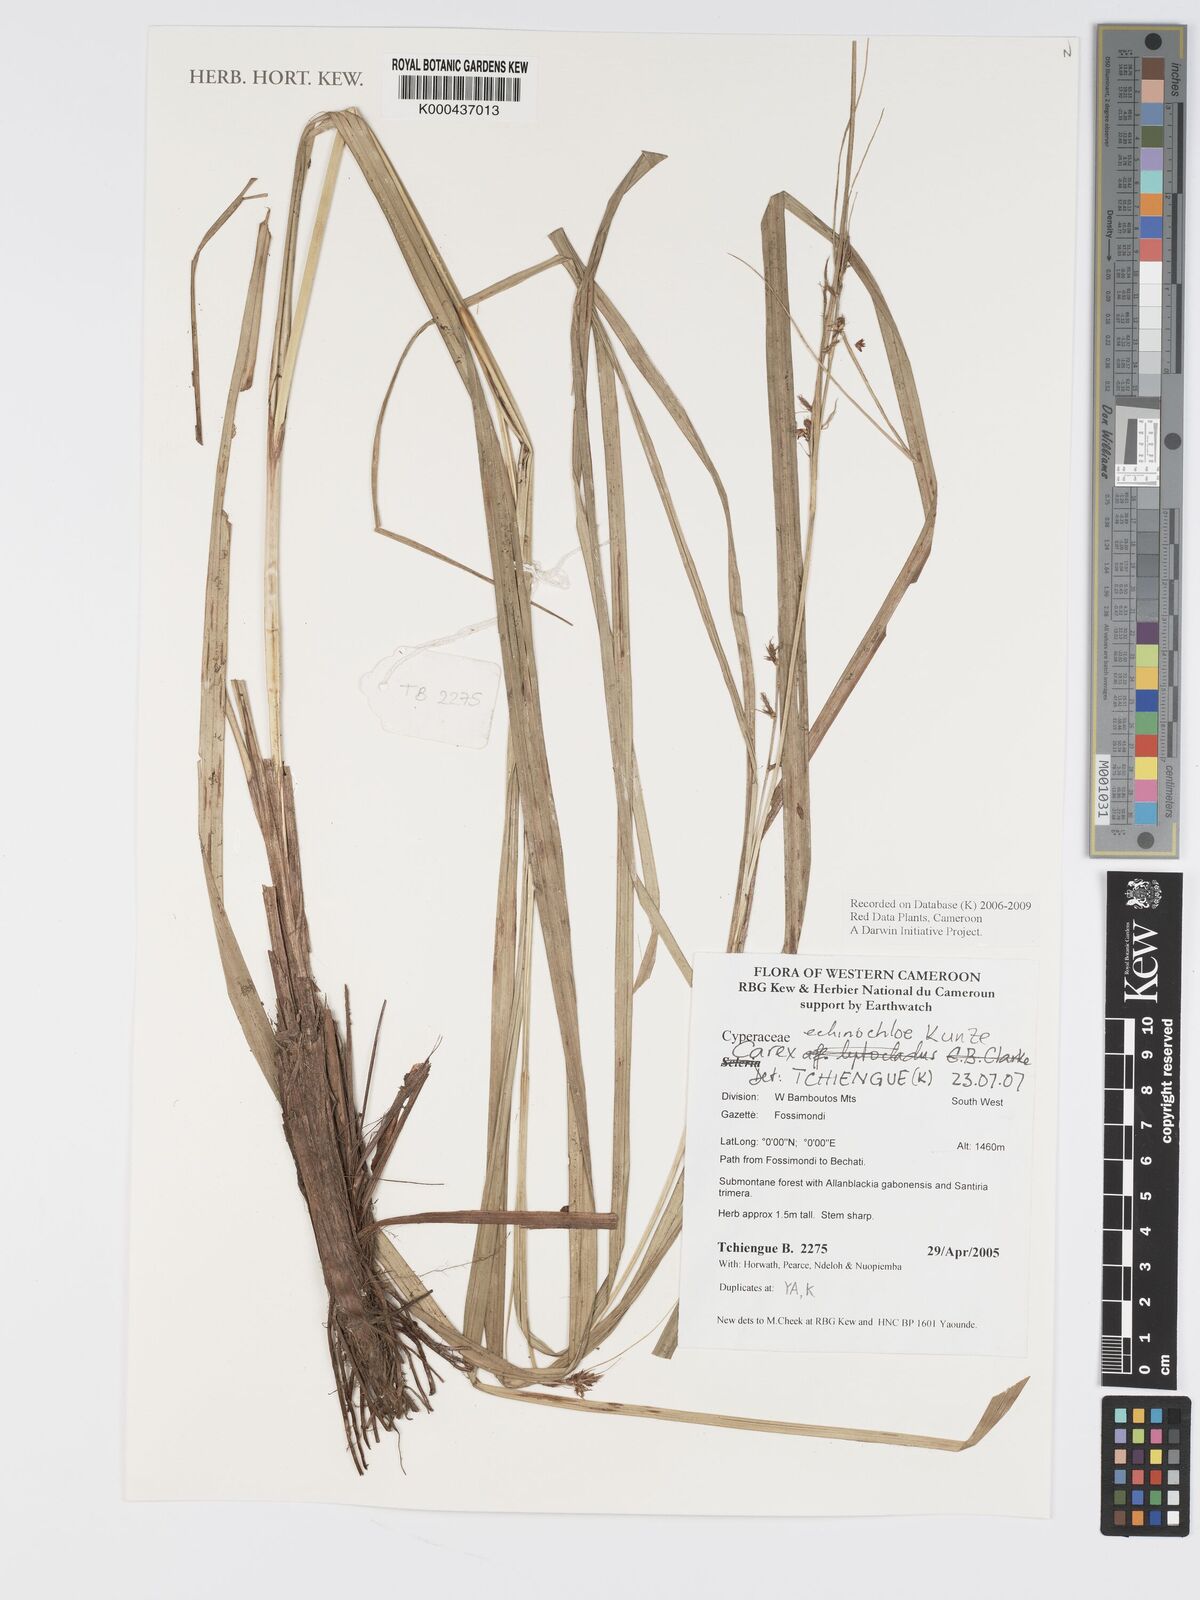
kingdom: Plantae
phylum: Tracheophyta
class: Liliopsida
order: Poales
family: Cyperaceae
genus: Carex
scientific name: Carex
